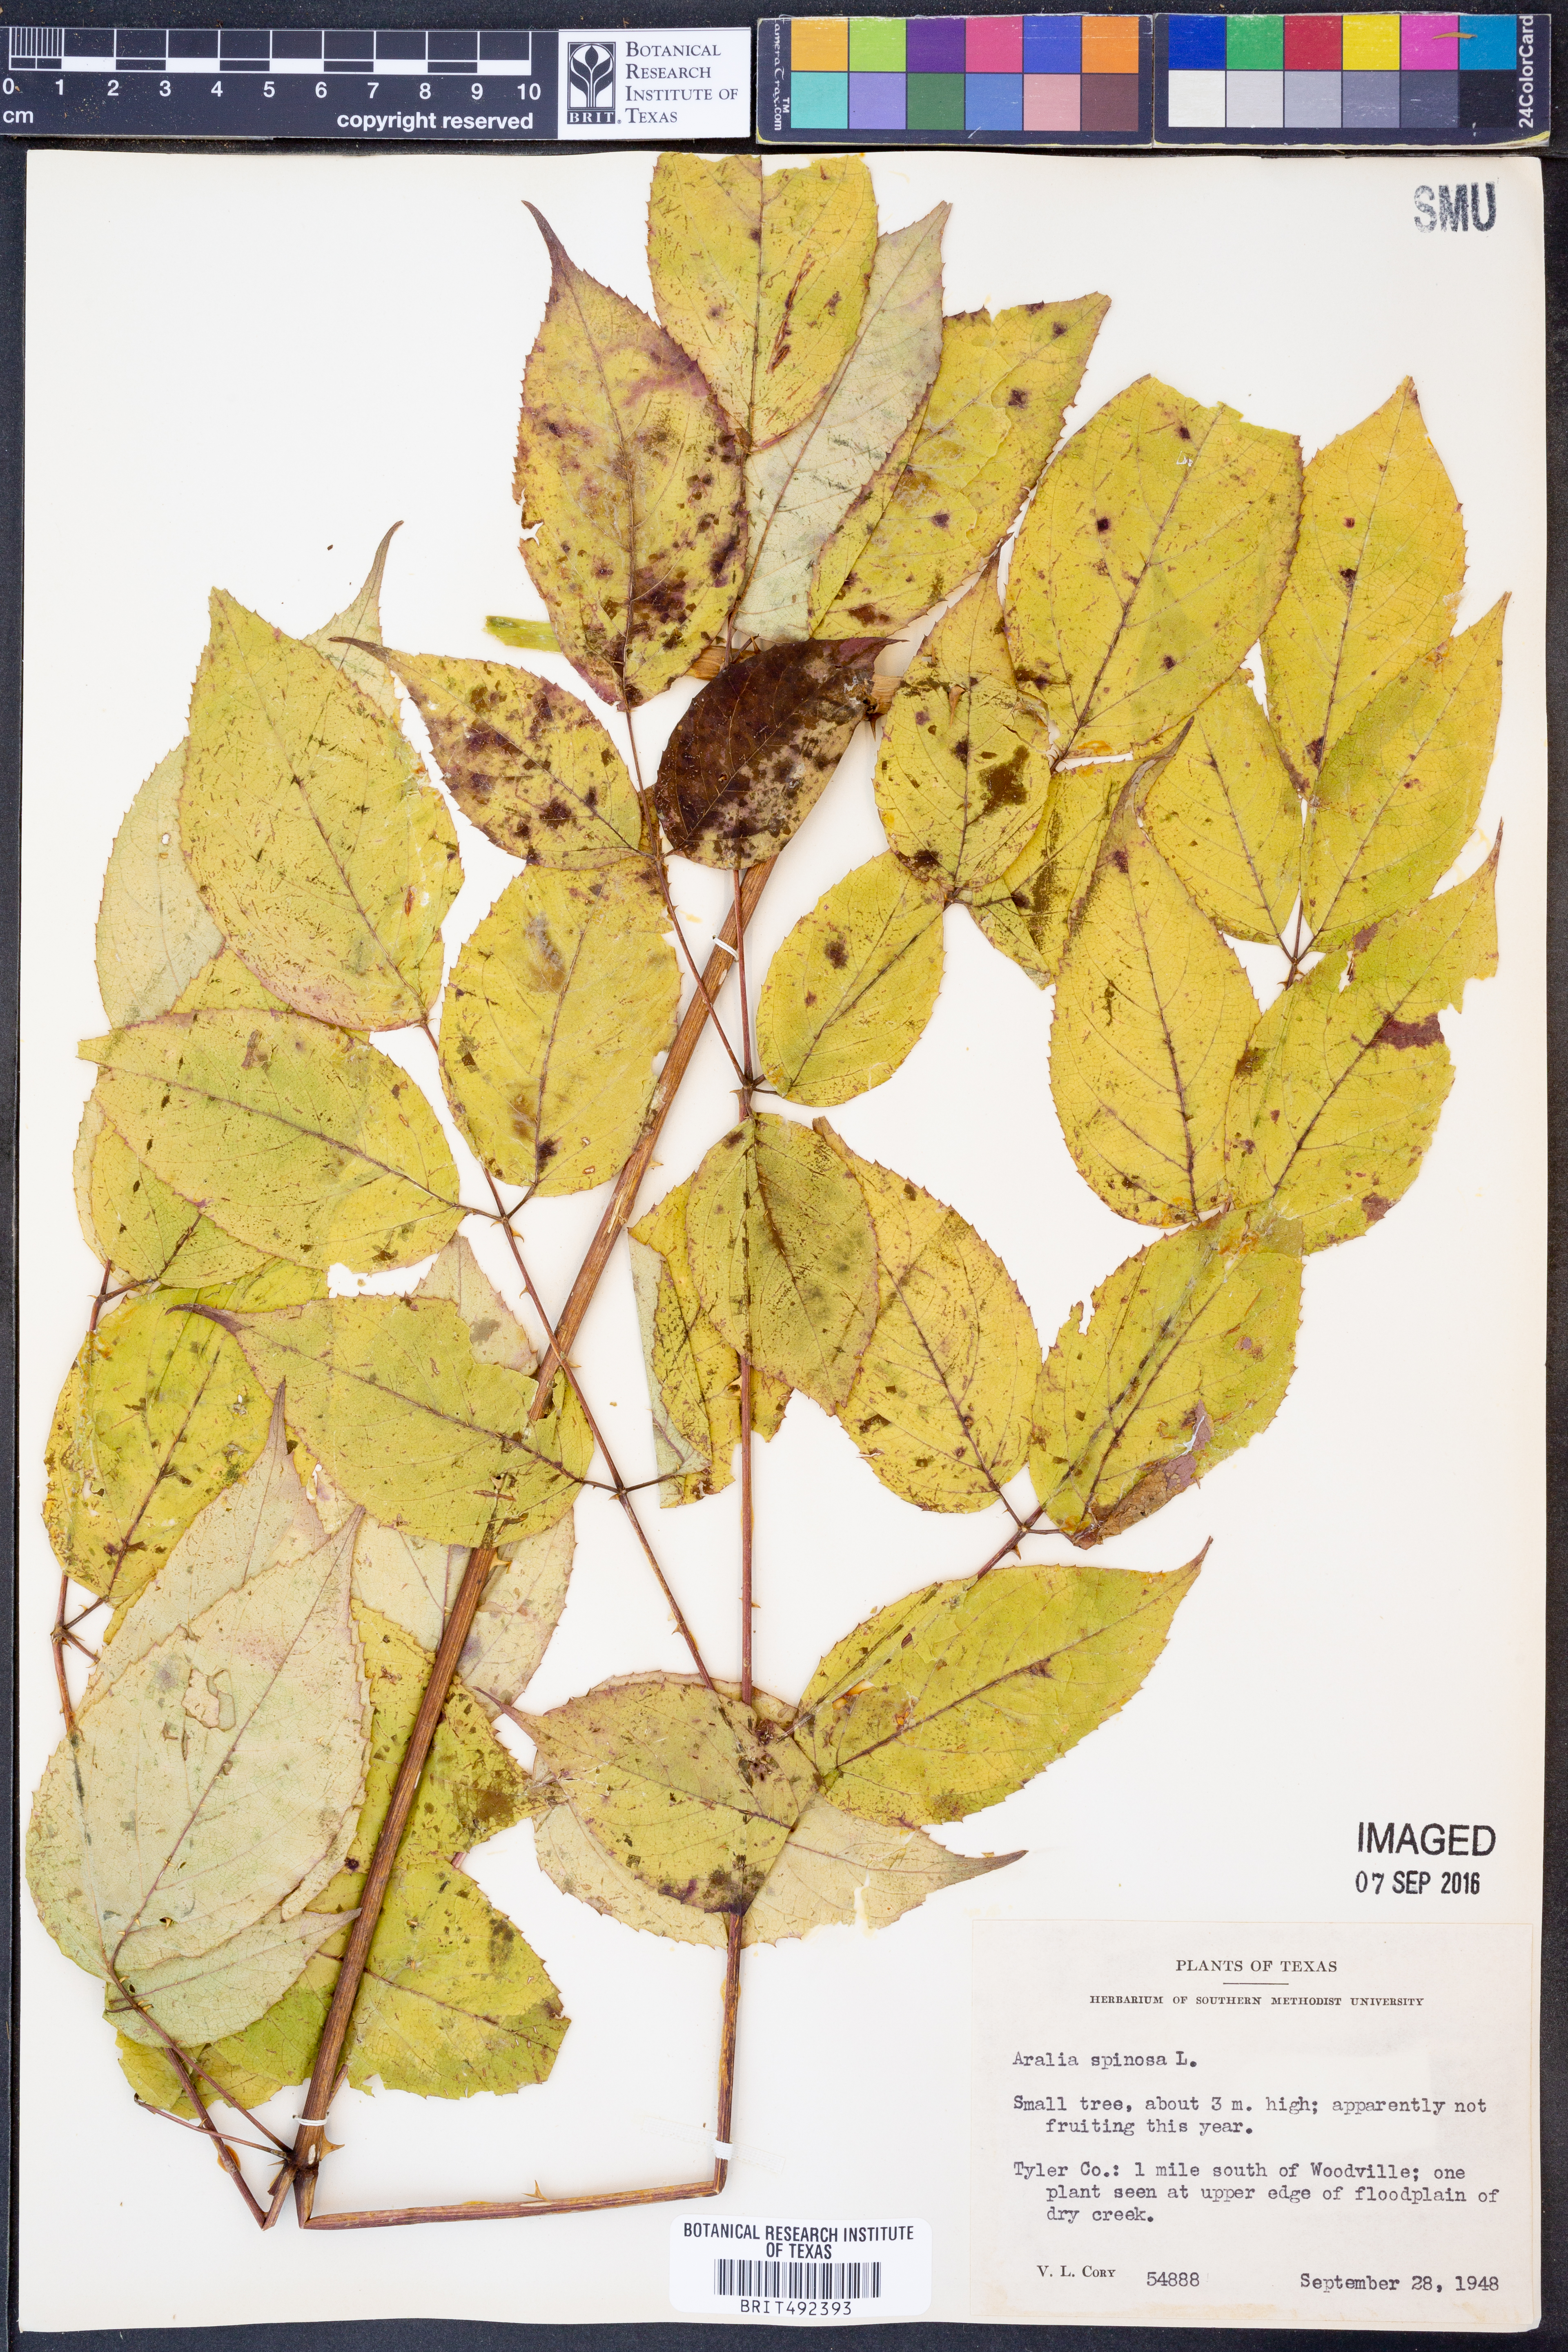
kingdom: Plantae
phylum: Tracheophyta
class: Magnoliopsida
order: Apiales
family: Araliaceae
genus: Aralia
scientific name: Aralia spinosa
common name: Hercules'-club
